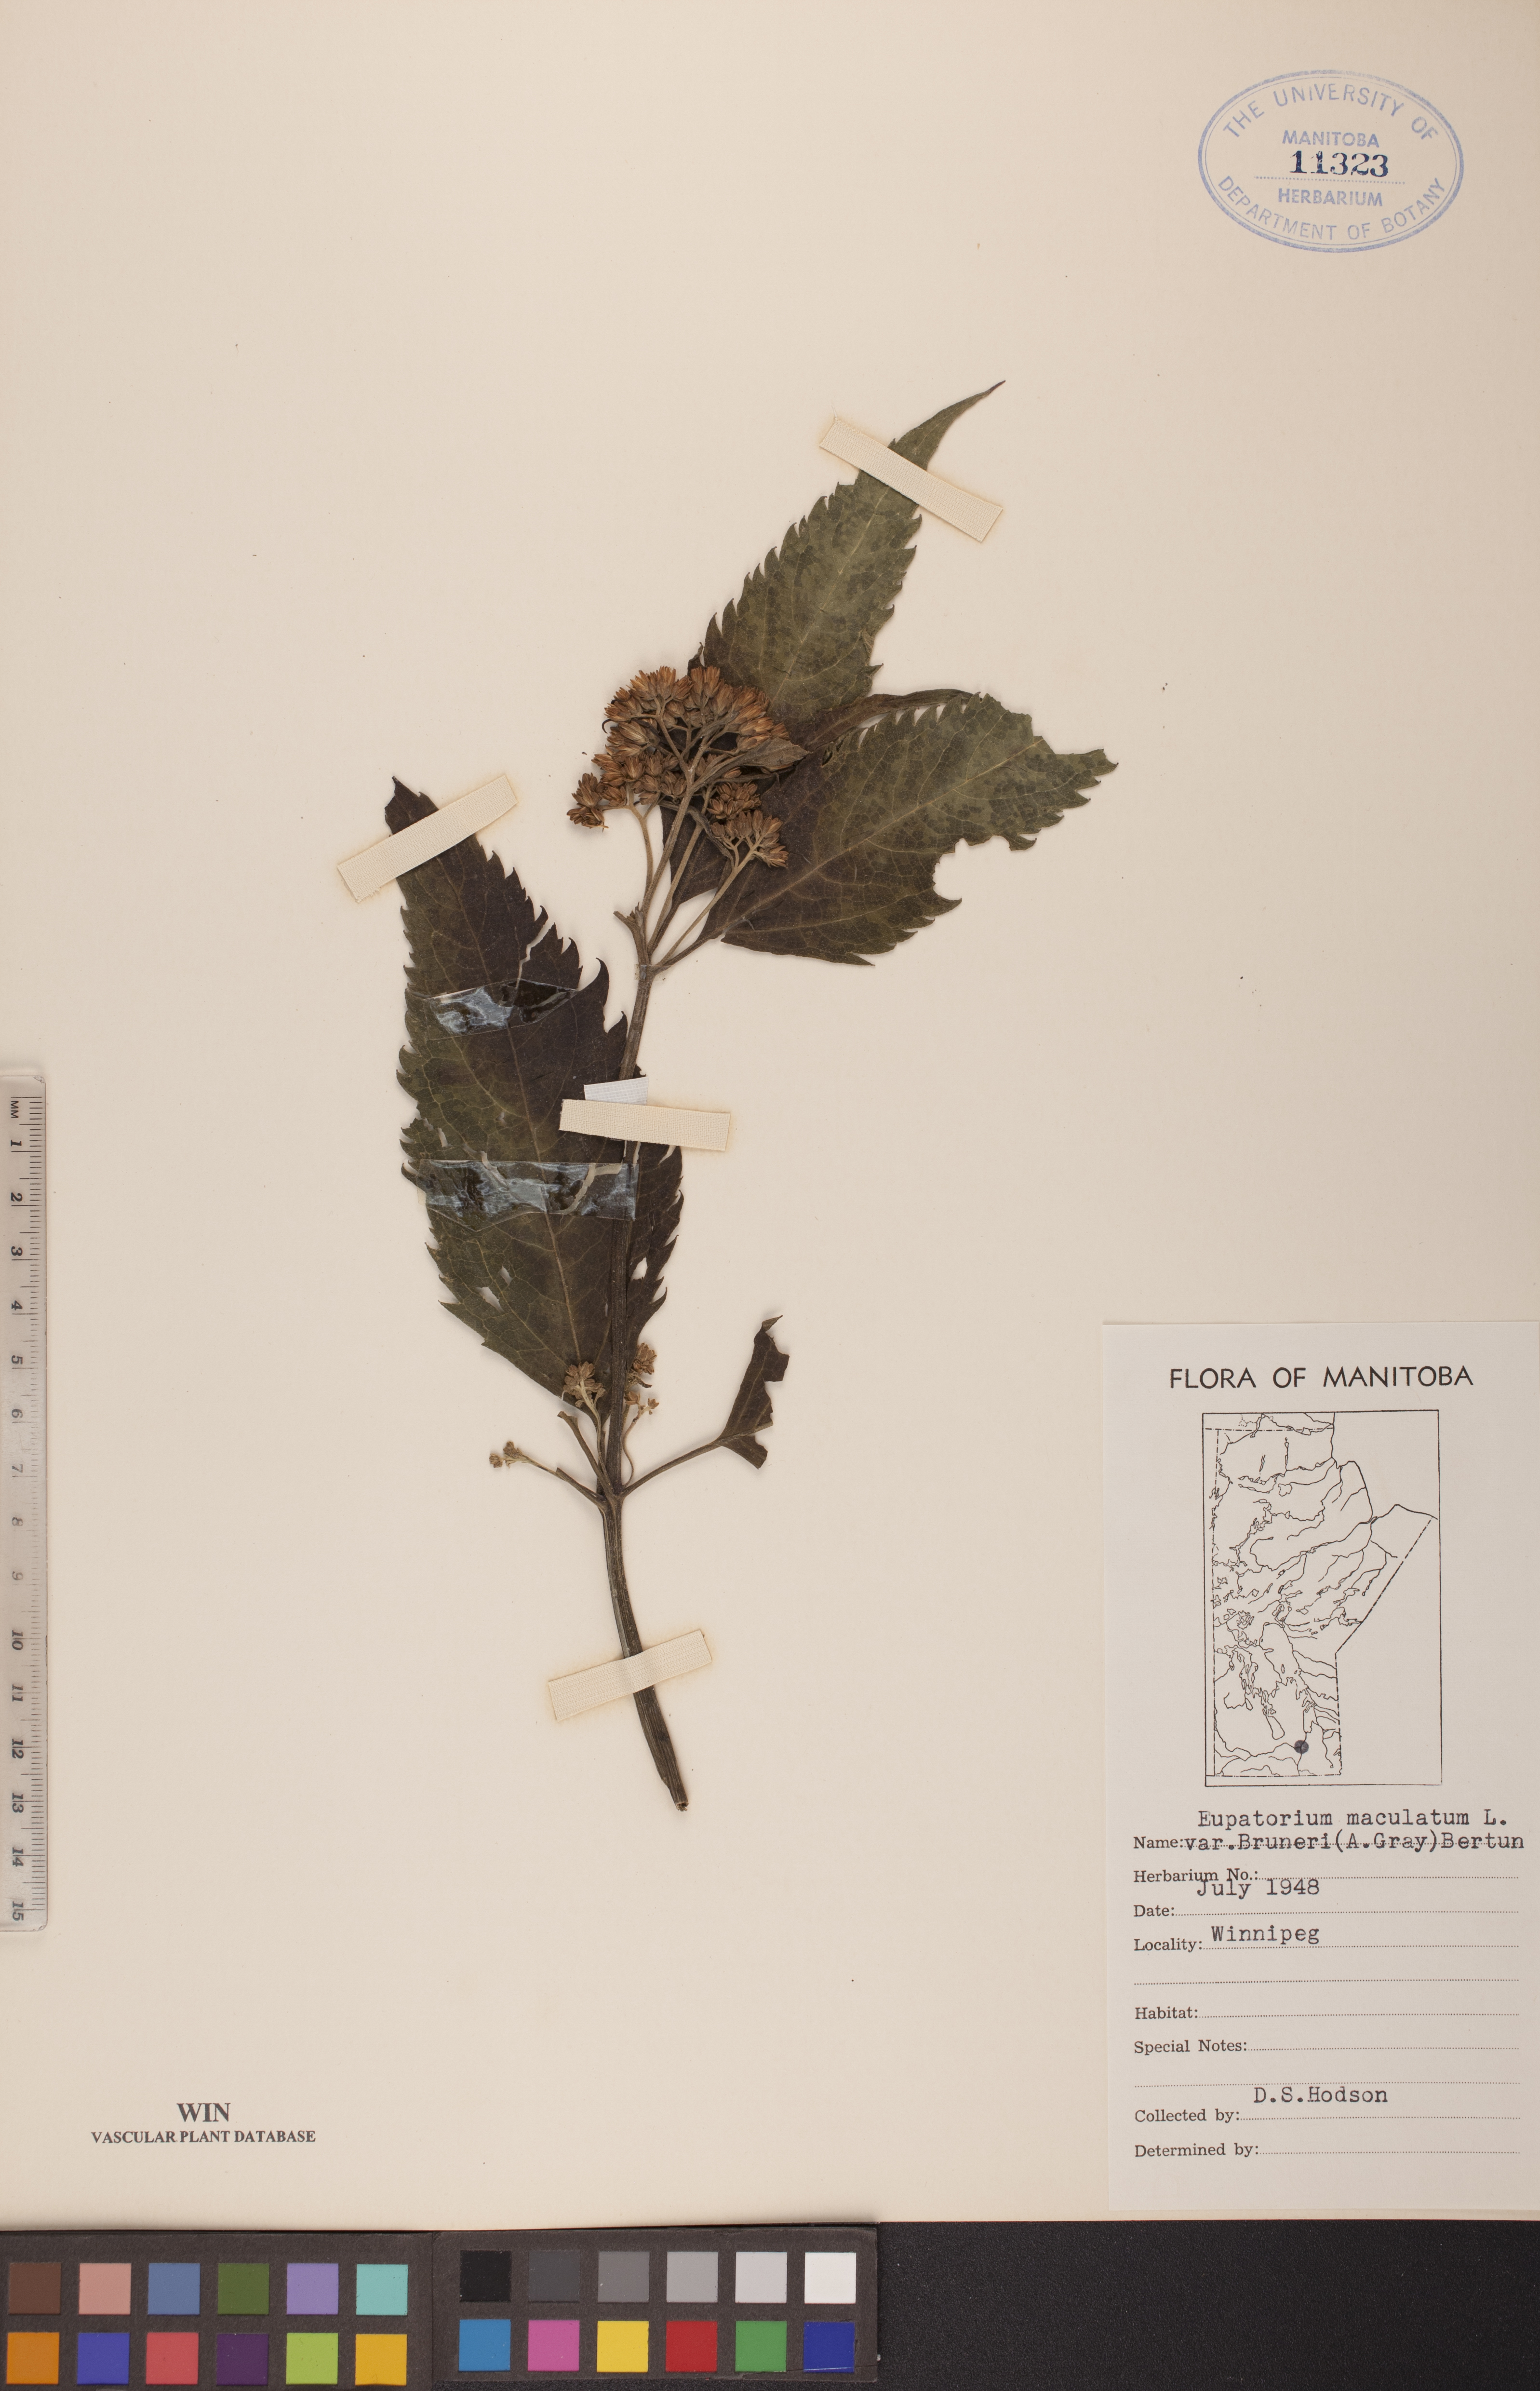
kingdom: Plantae
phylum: Tracheophyta
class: Magnoliopsida
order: Asterales
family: Asteraceae
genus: Eutrochium
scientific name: Eutrochium maculatum
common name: Spotted joe pye weed
